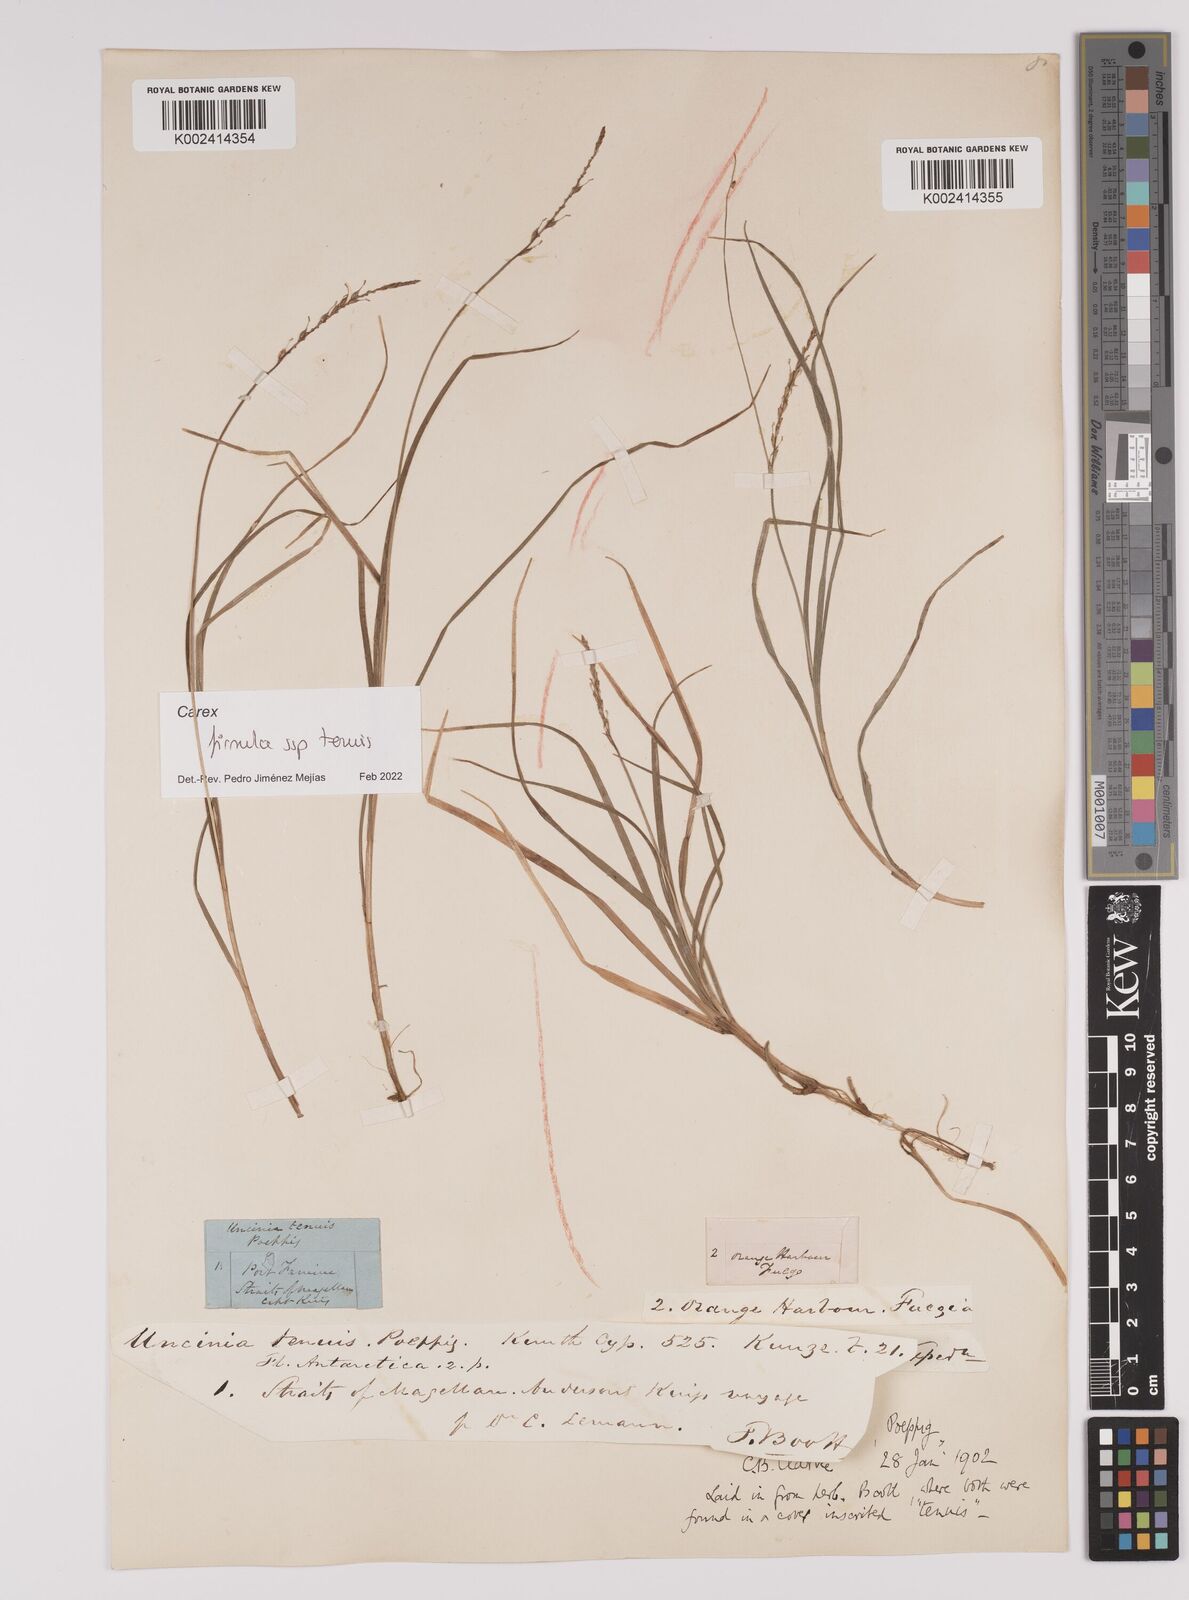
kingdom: Plantae
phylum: Tracheophyta
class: Liliopsida
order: Poales
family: Cyperaceae
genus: Carex
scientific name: Carex firmula
